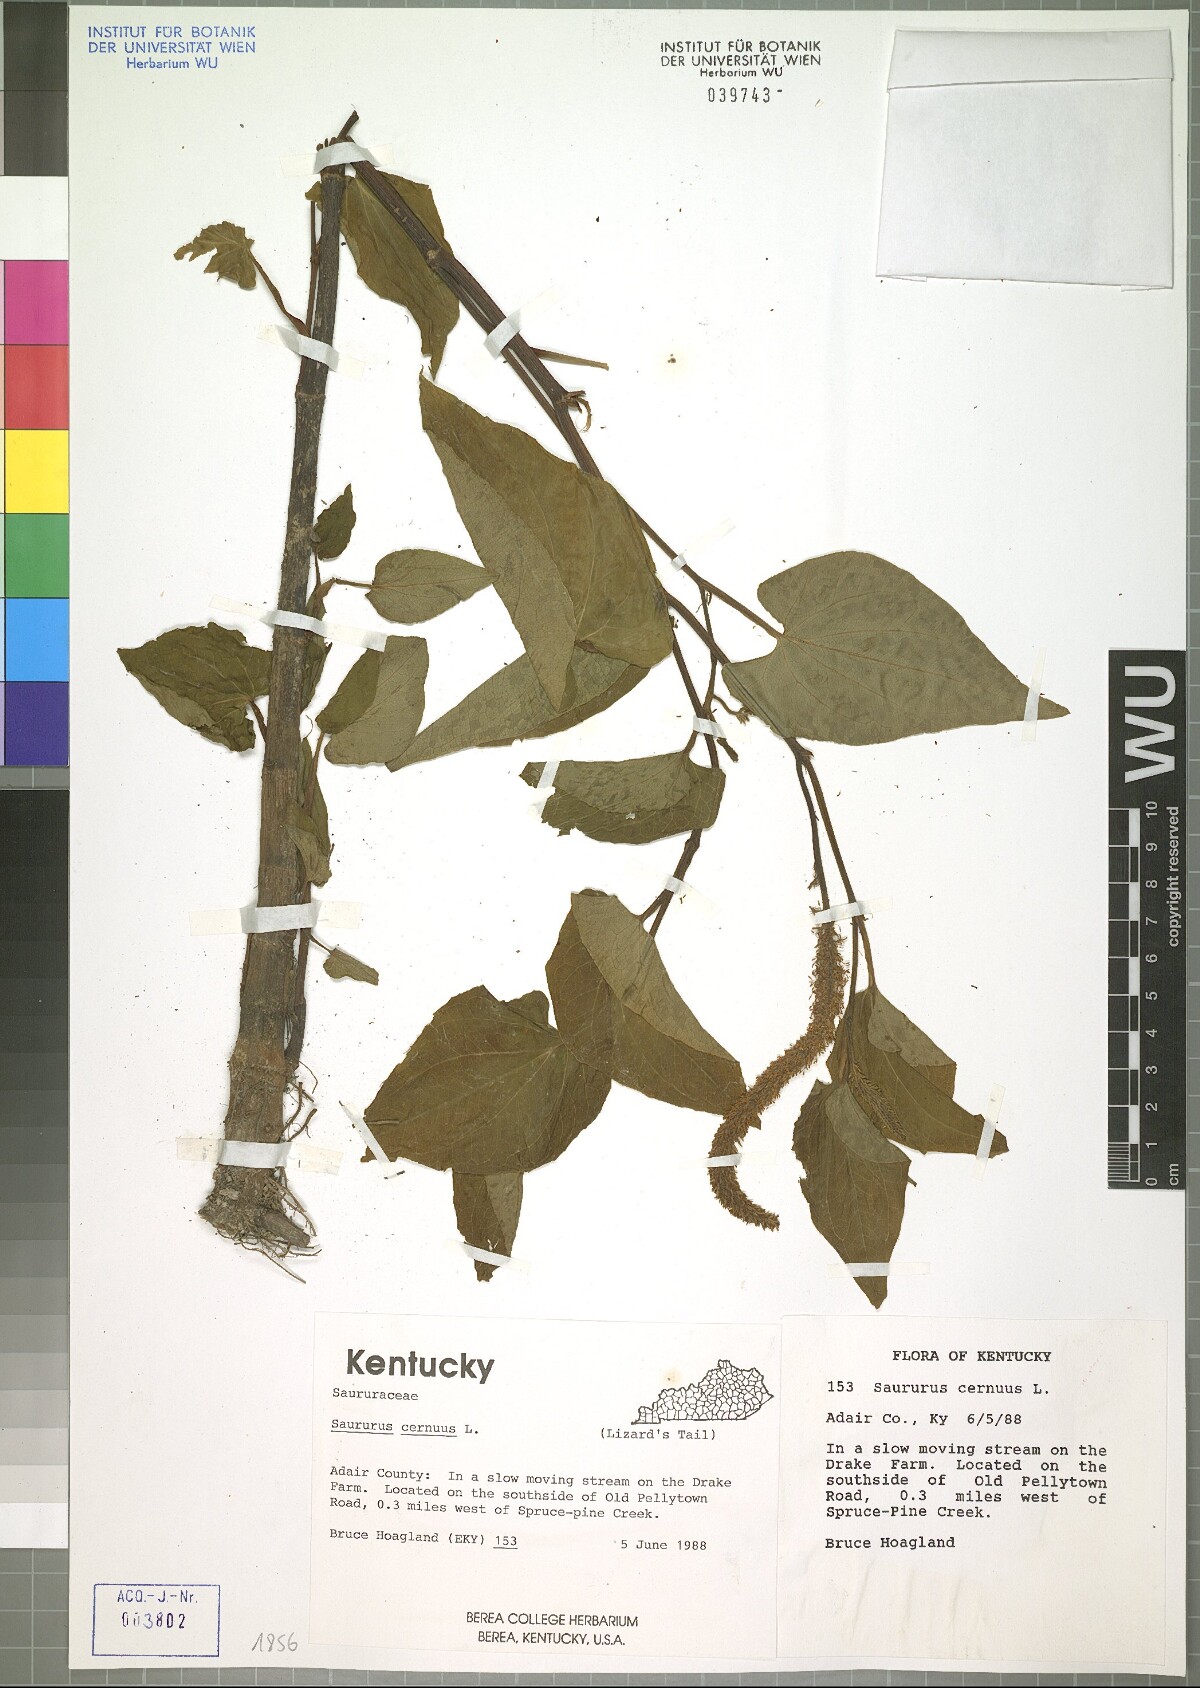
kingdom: Plantae
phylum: Tracheophyta
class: Magnoliopsida
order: Piperales
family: Saururaceae
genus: Saururus
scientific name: Saururus cernuus
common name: Lizard's-tail
